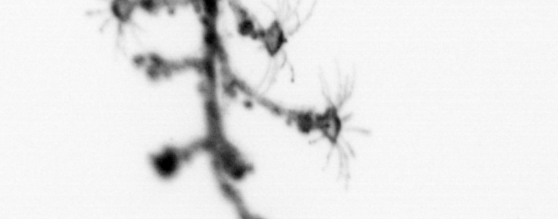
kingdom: Animalia
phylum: Annelida
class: Polychaeta
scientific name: Polychaeta
